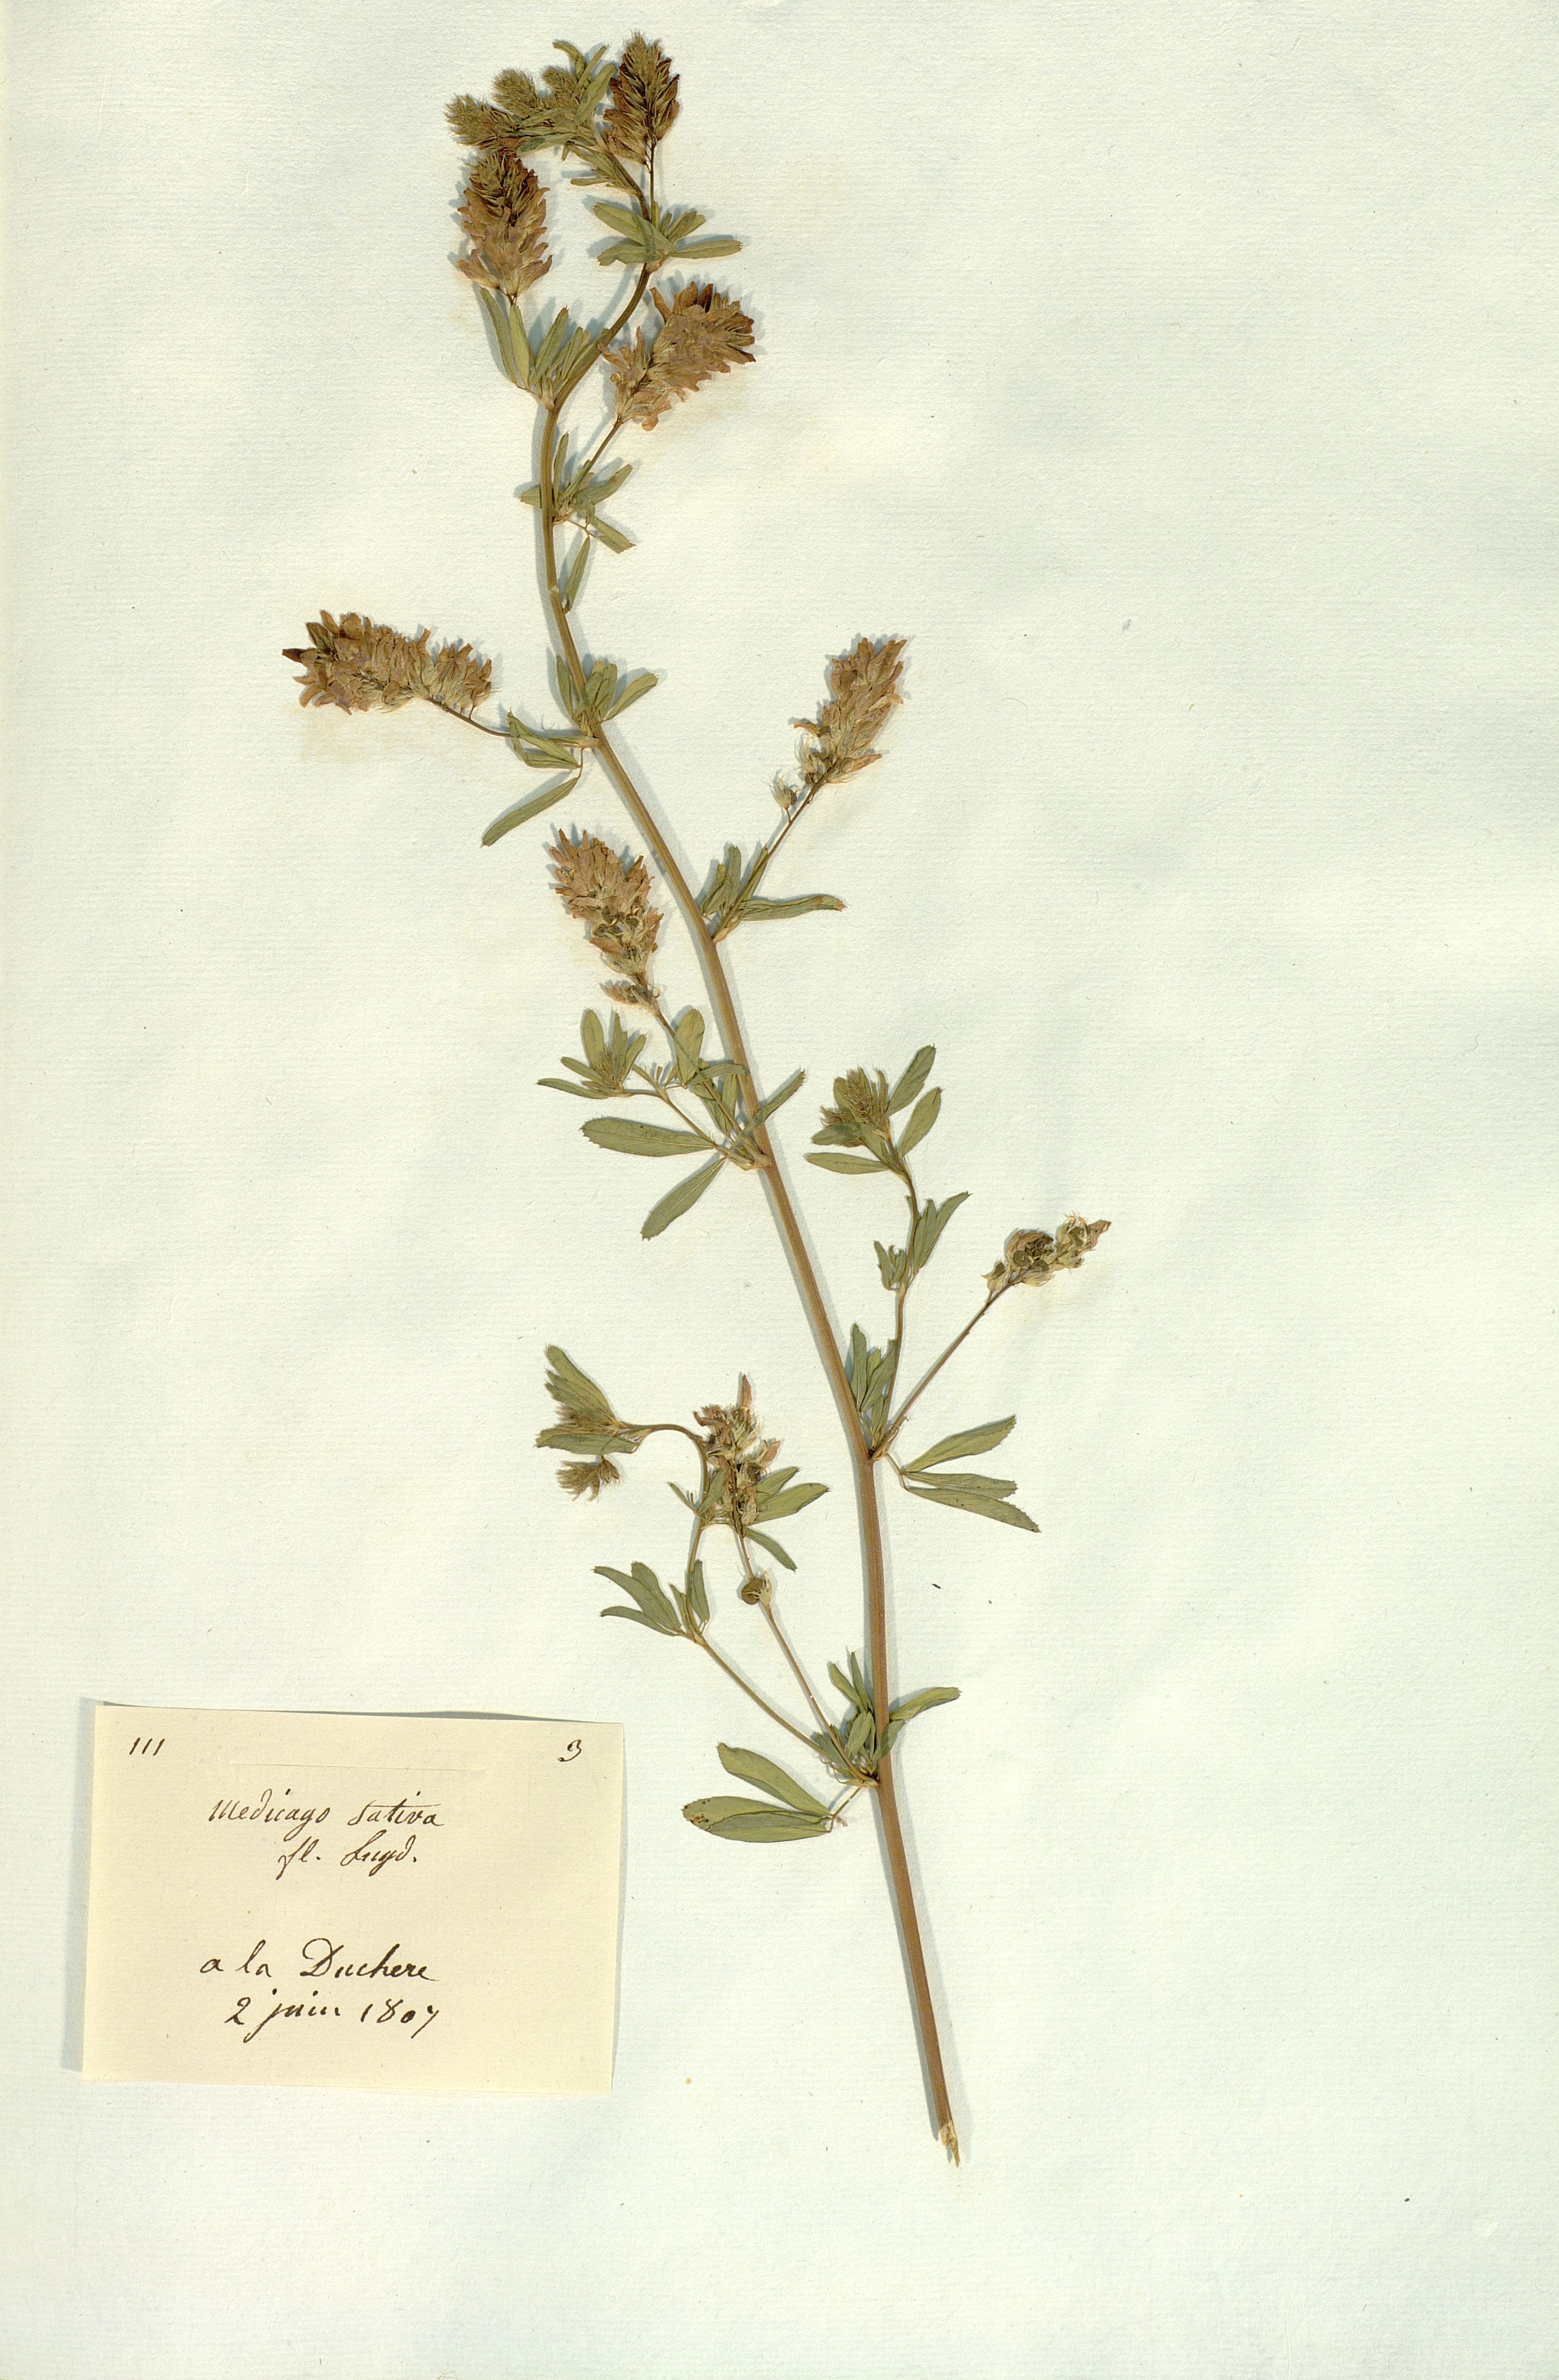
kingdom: Plantae
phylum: Tracheophyta
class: Magnoliopsida
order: Fabales
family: Fabaceae
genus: Medicago
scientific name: Medicago sativa
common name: Alfalfa
